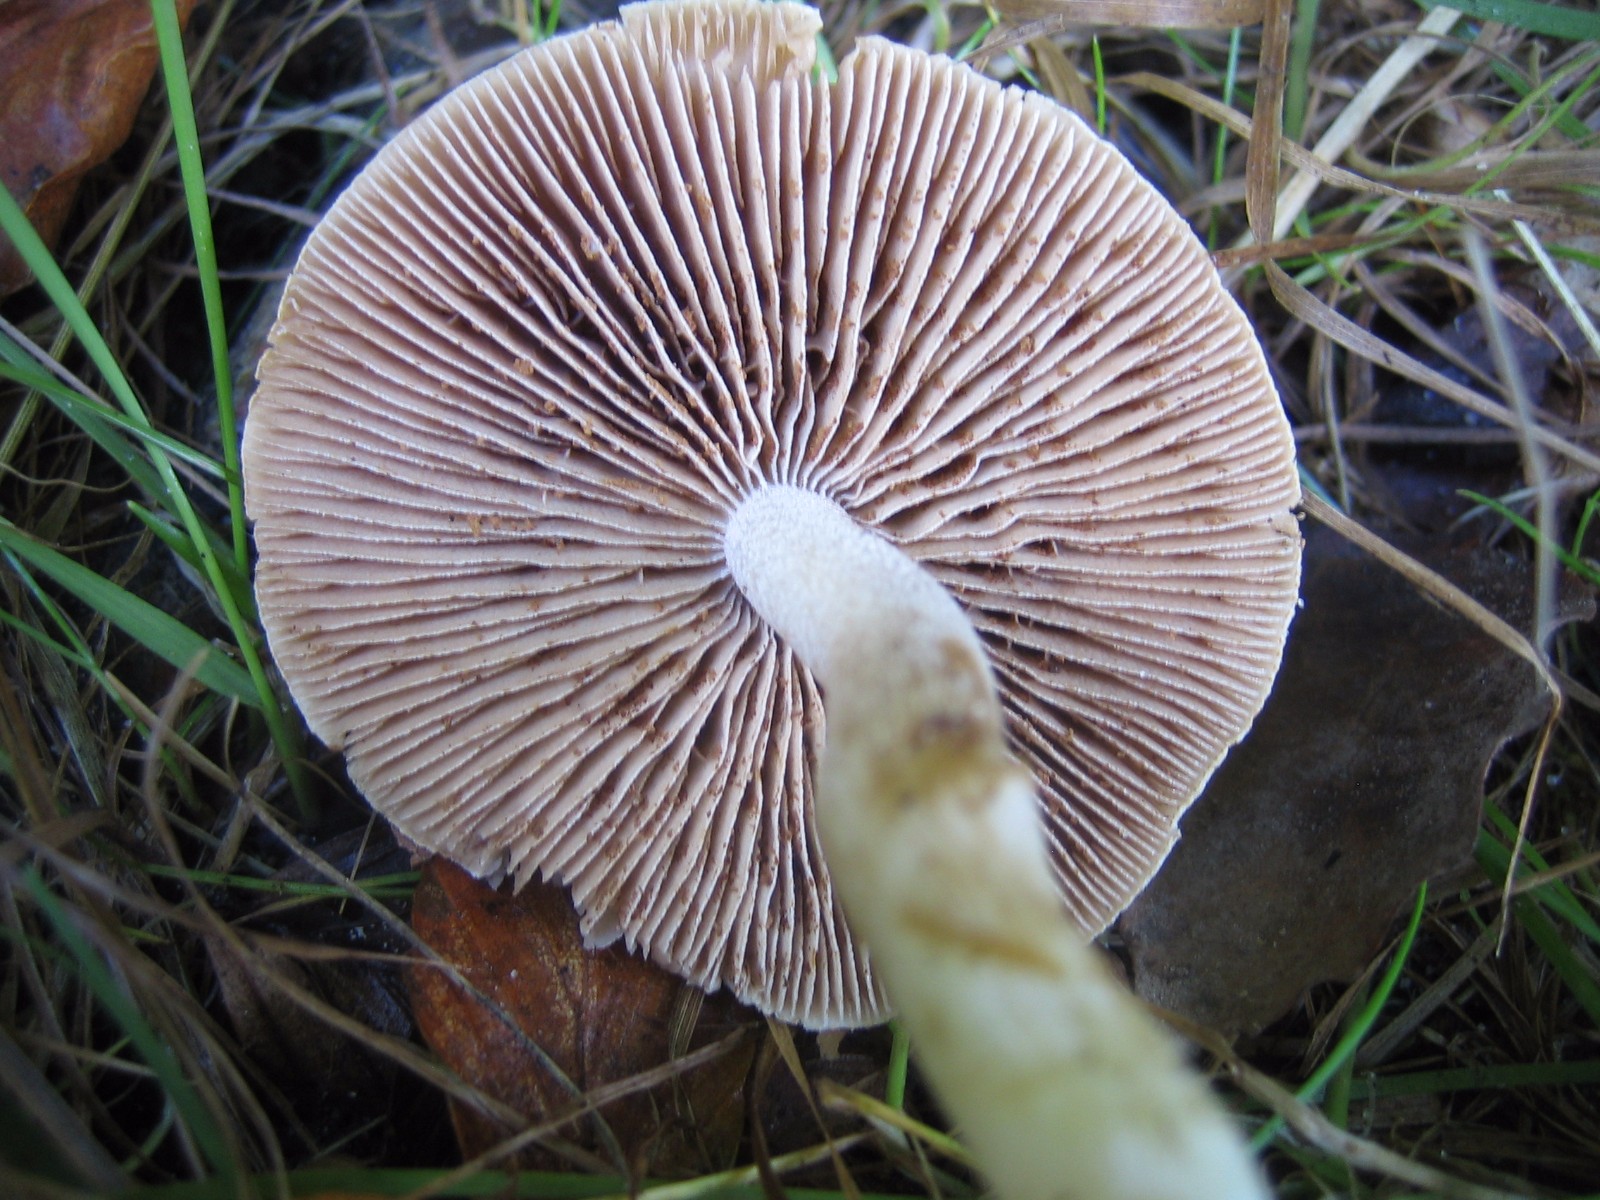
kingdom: Fungi
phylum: Basidiomycota
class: Agaricomycetes
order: Agaricales
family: Hymenogastraceae
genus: Hebeloma
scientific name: Hebeloma
